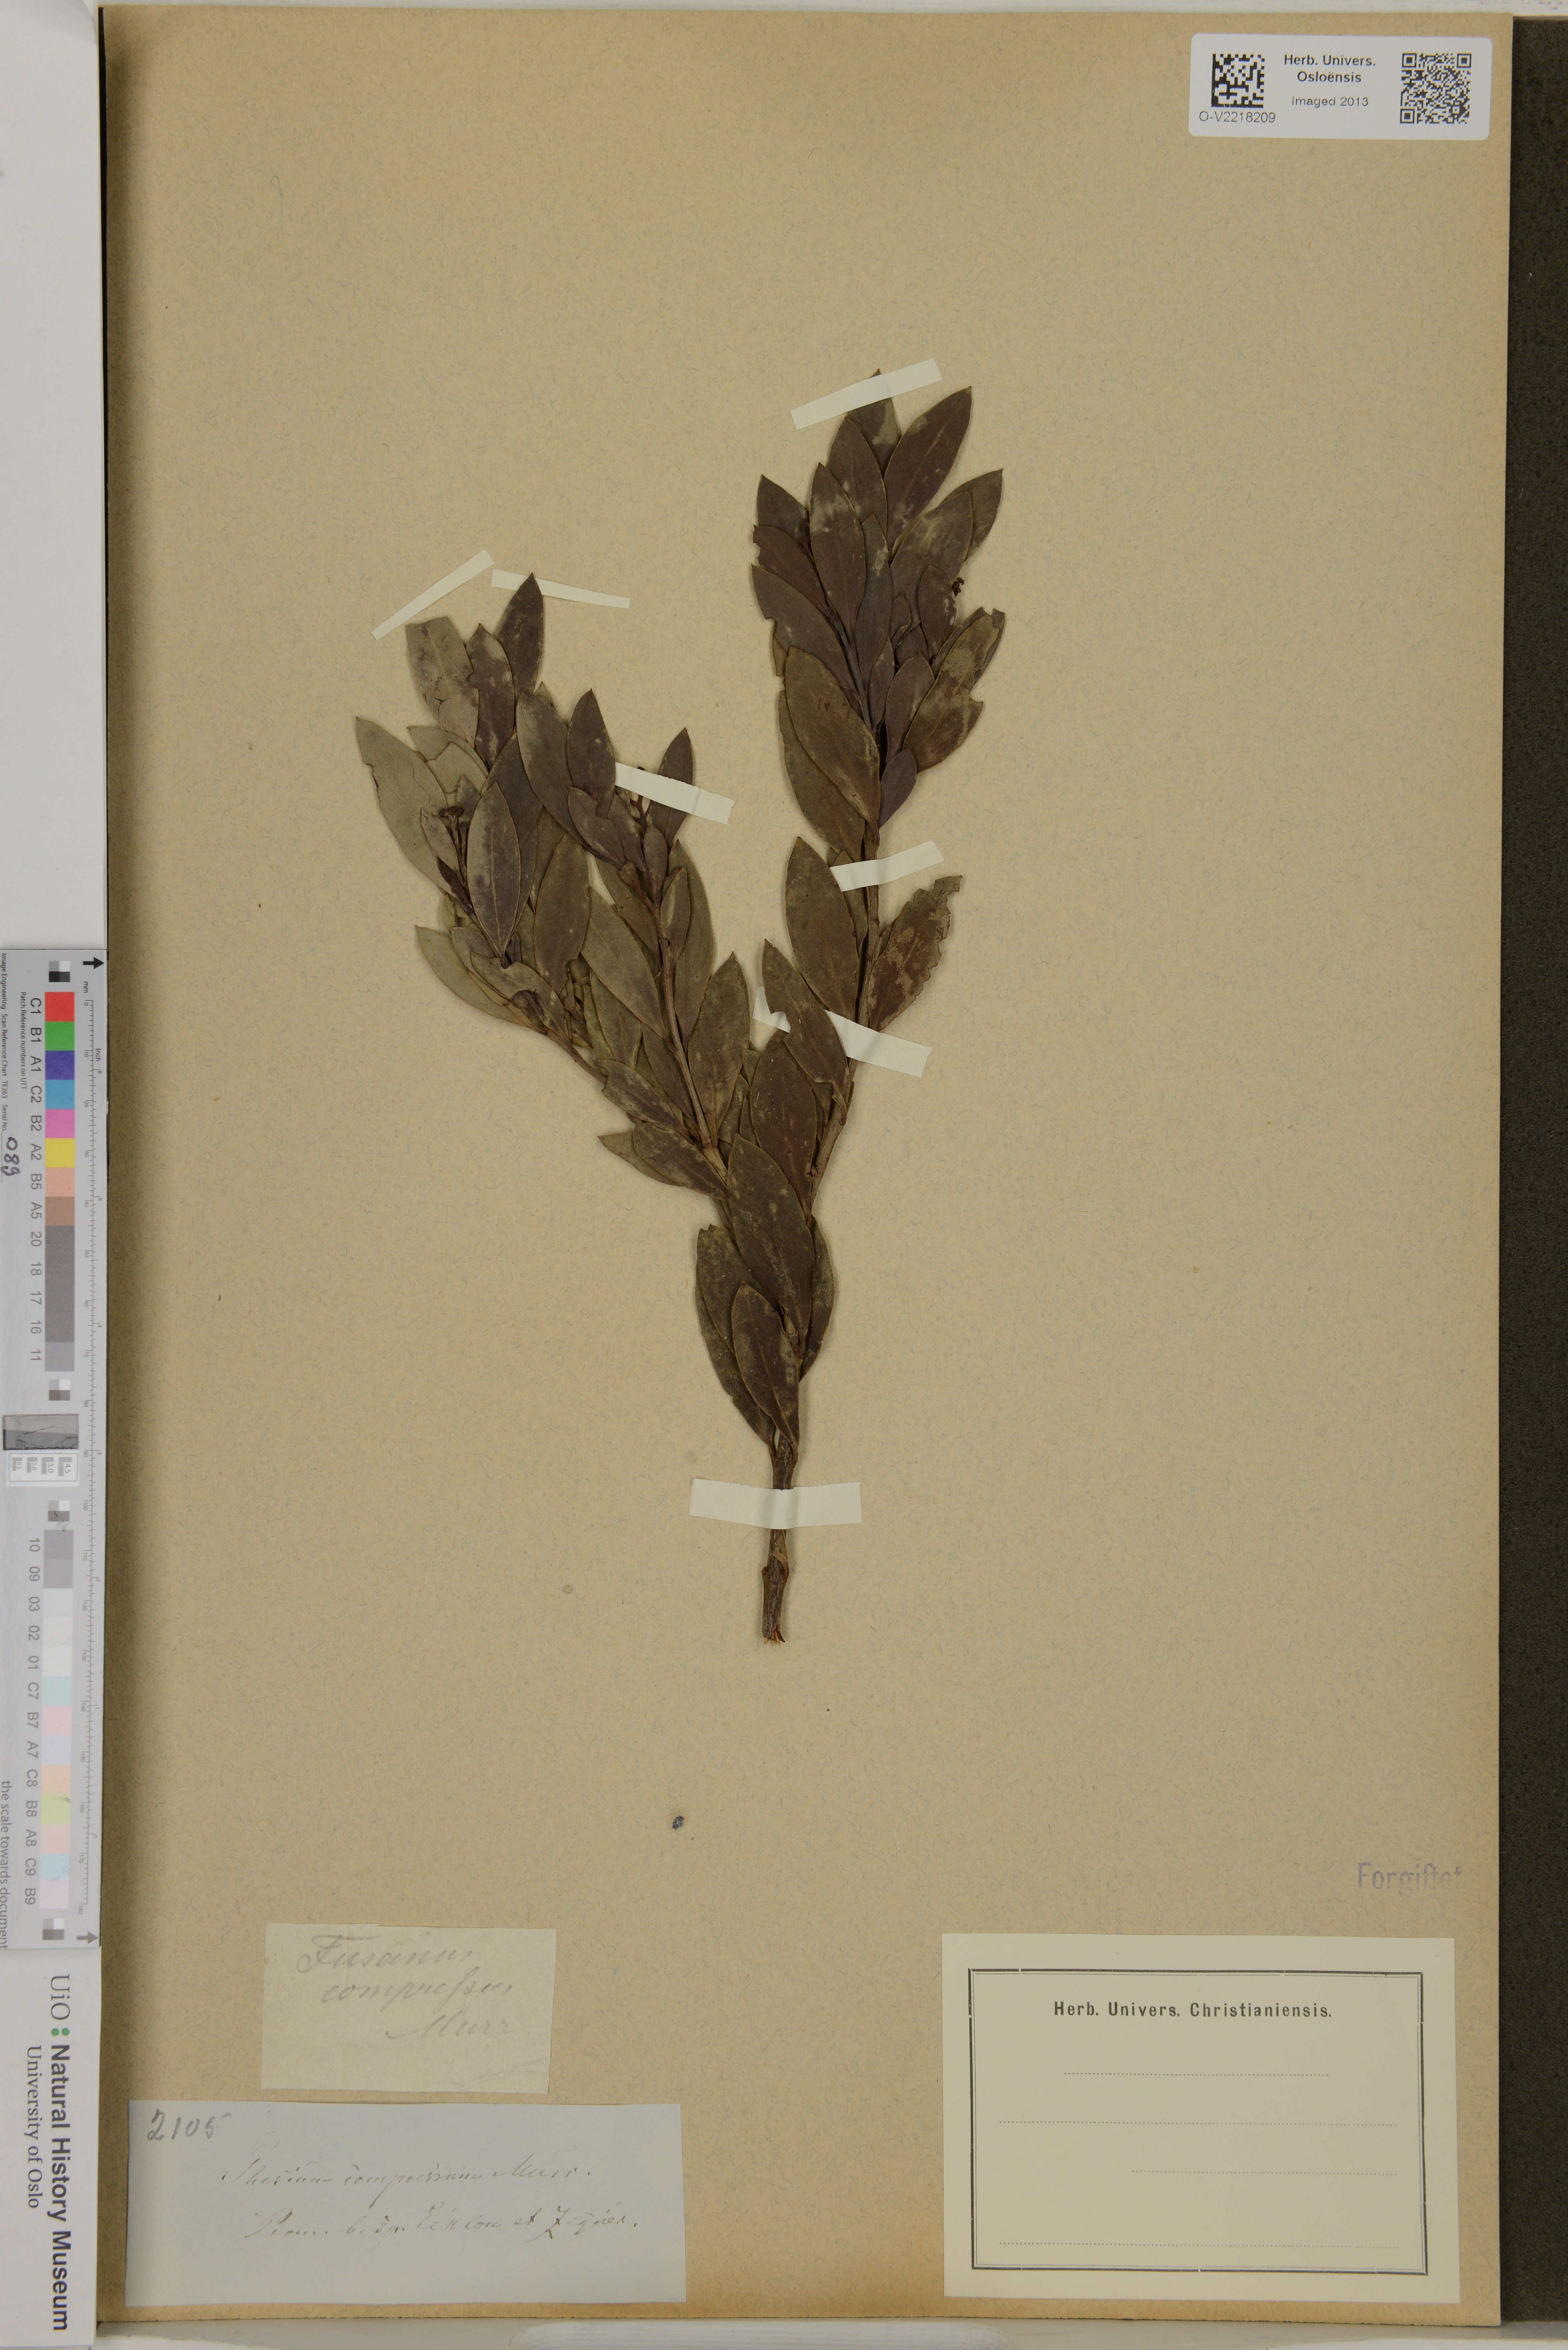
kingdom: Plantae
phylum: Tracheophyta
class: Magnoliopsida
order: Santalales
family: Thesiaceae
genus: Thesium
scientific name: Thesium compressum
